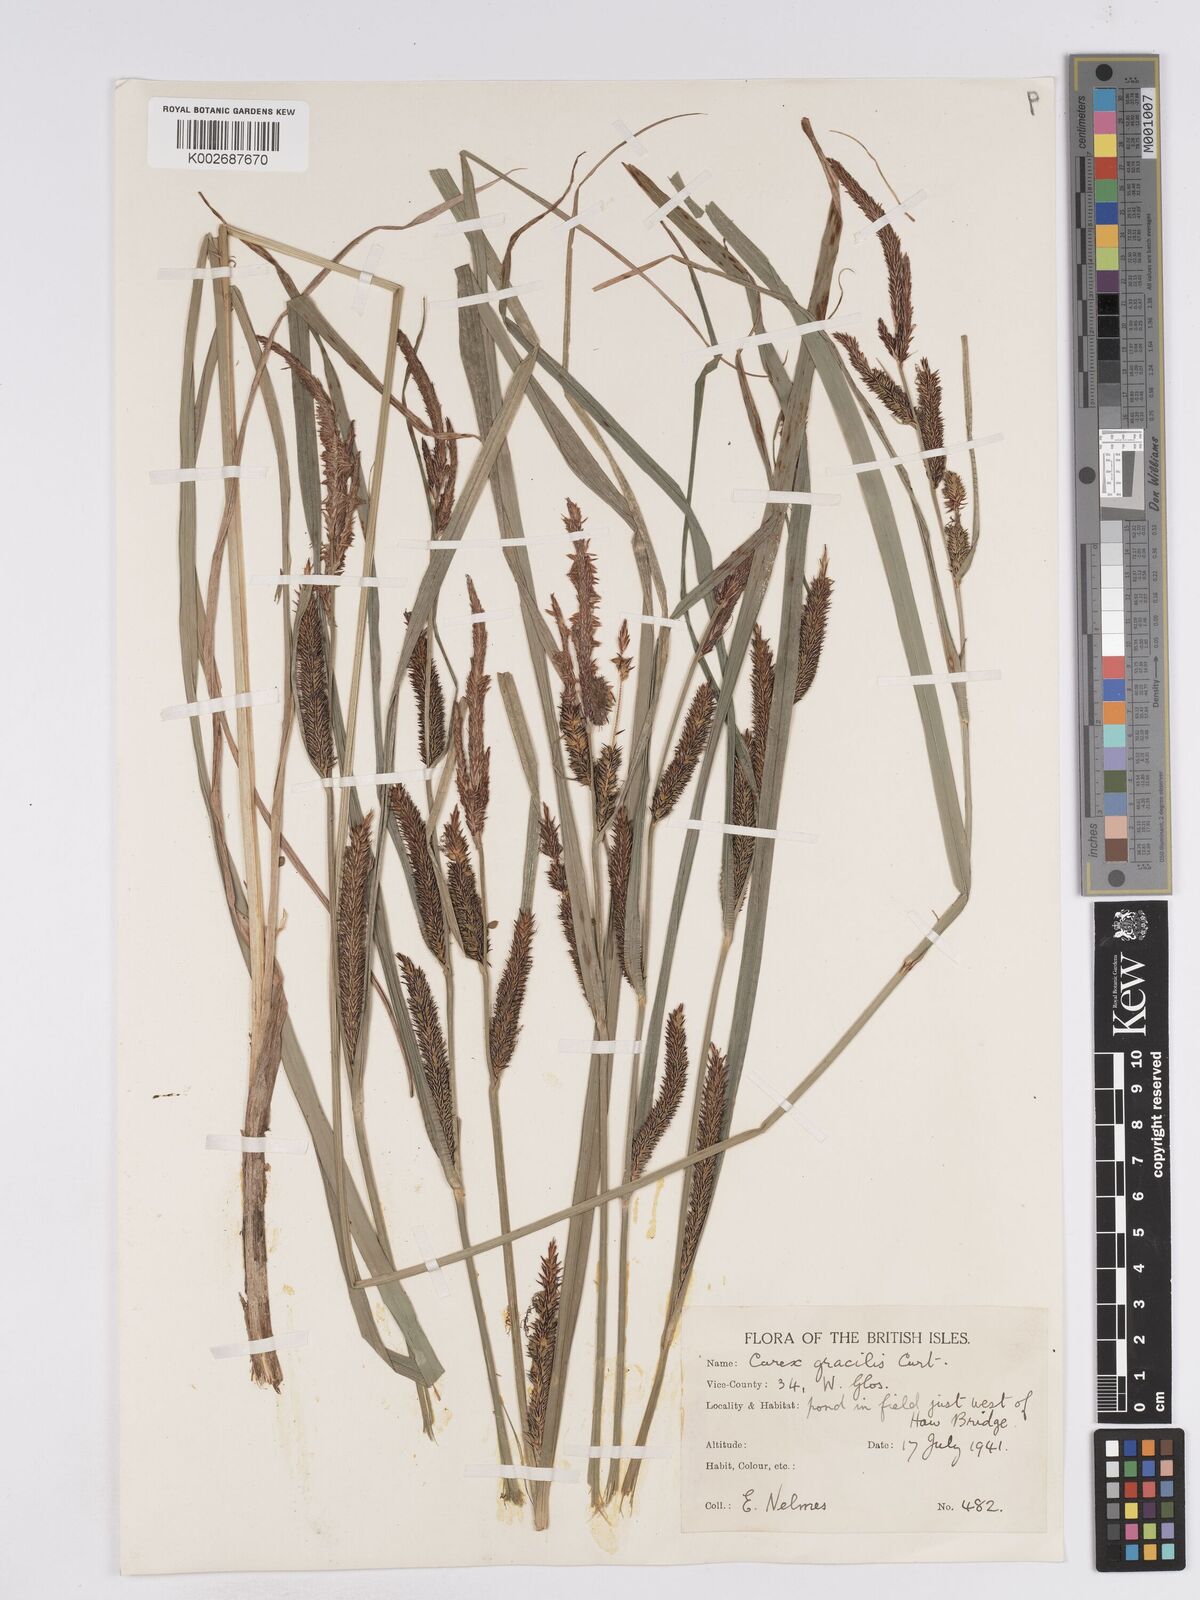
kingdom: Plantae
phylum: Tracheophyta
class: Liliopsida
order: Poales
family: Cyperaceae
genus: Carex
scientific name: Carex acuta
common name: Slender tufted-sedge
